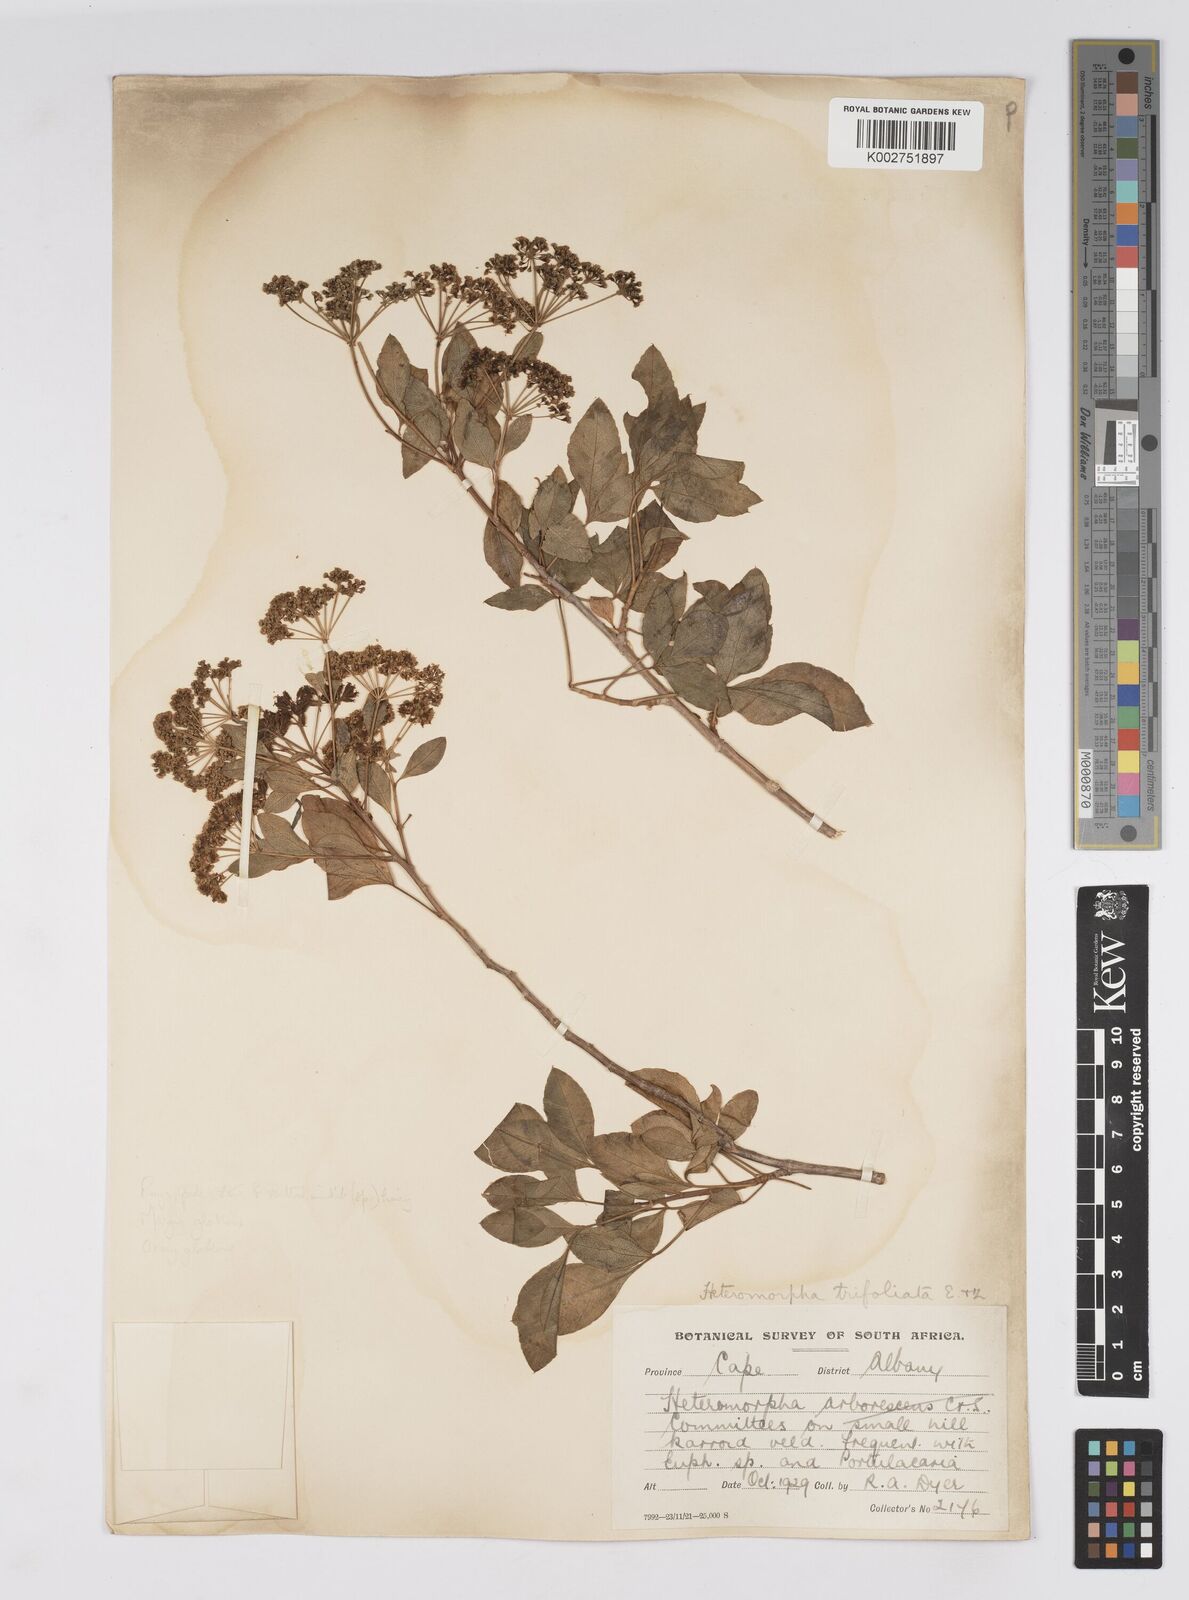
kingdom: Plantae
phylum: Tracheophyta
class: Magnoliopsida
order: Apiales
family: Apiaceae
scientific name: Apiaceae
